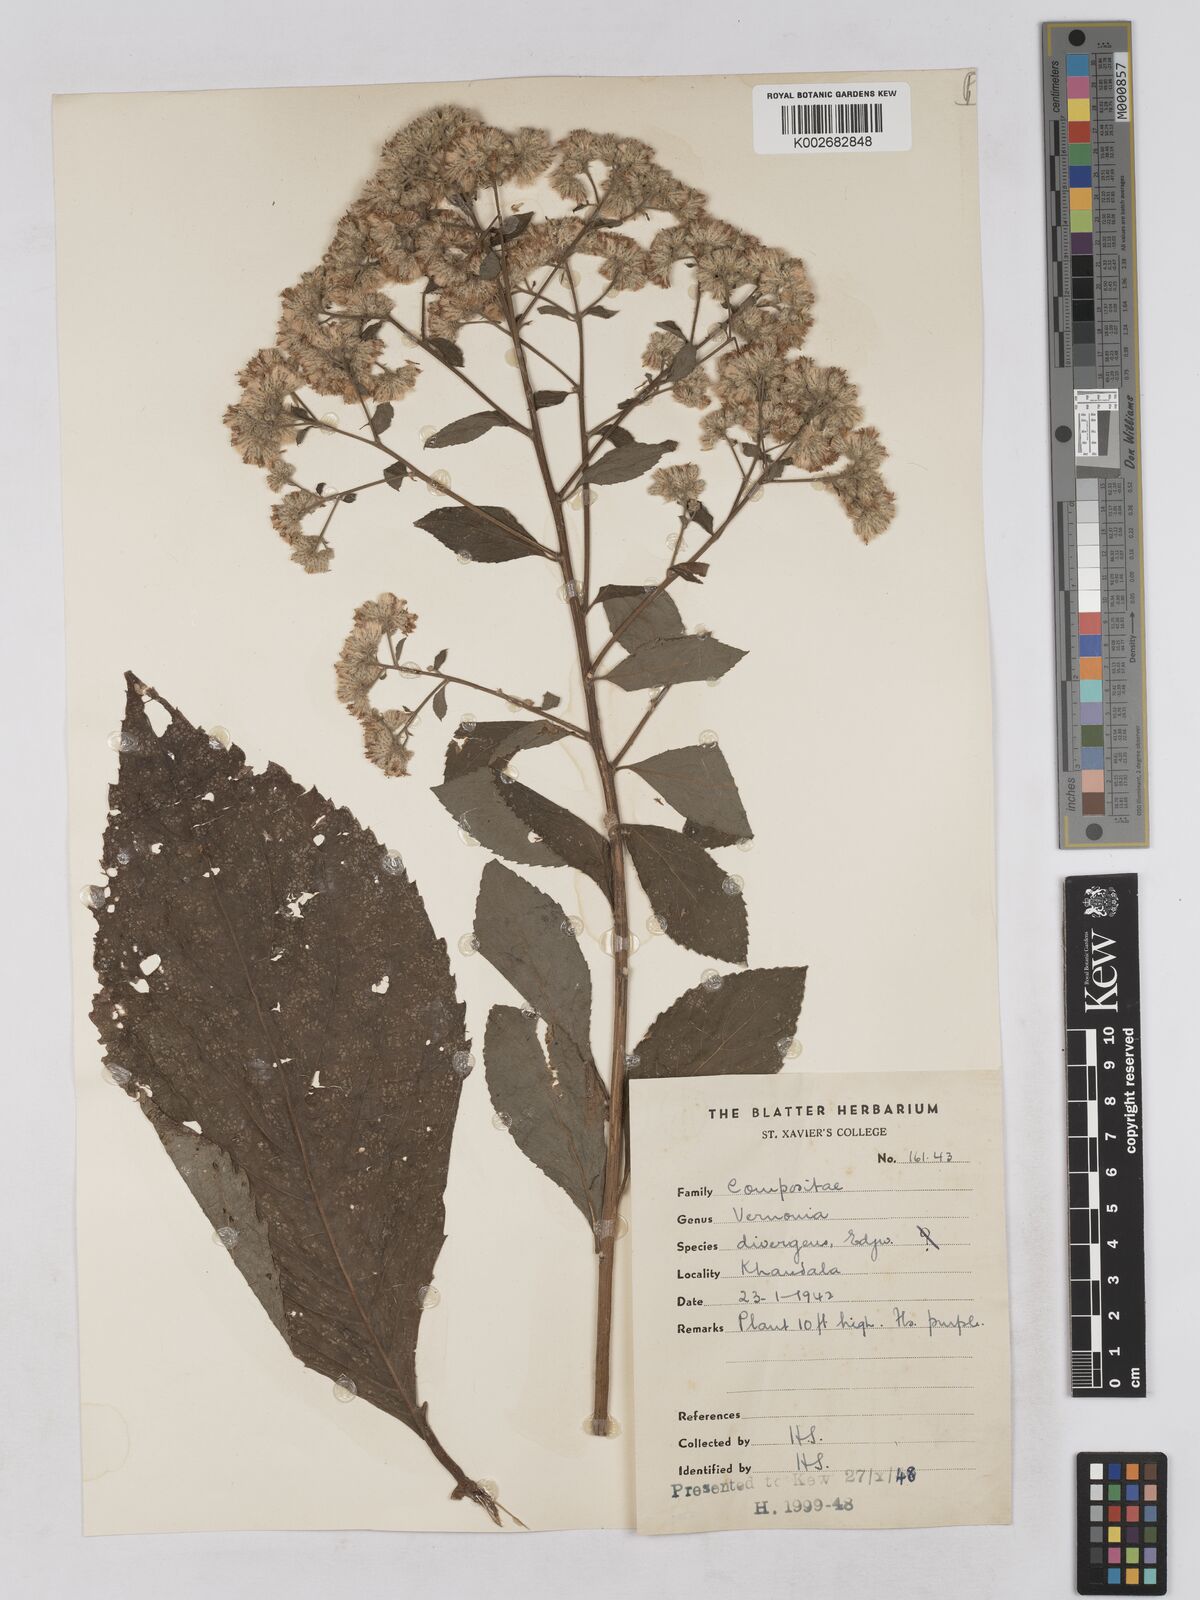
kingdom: Plantae
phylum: Tracheophyta
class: Magnoliopsida
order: Asterales
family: Asteraceae
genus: Acilepis
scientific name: Acilepis divergens
